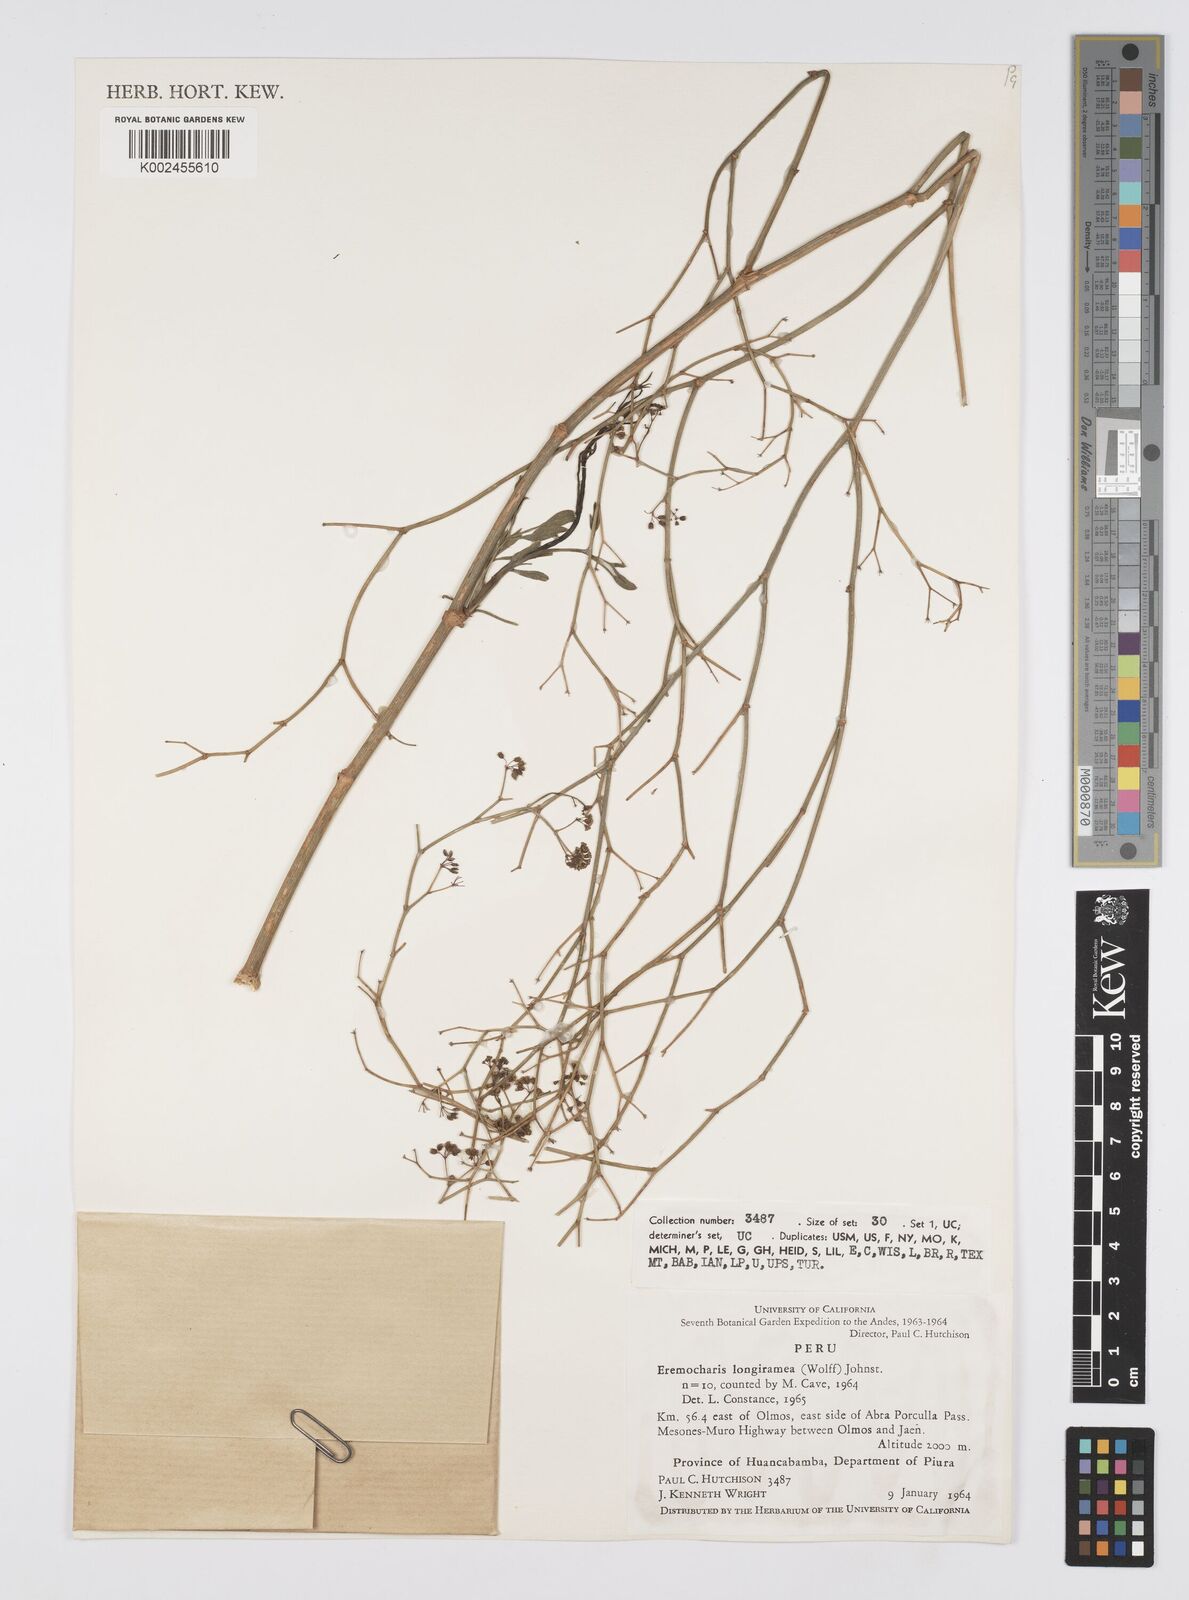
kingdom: Plantae
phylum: Tracheophyta
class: Magnoliopsida
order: Apiales
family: Apiaceae
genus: Eremocharis
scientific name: Eremocharis longiramea
